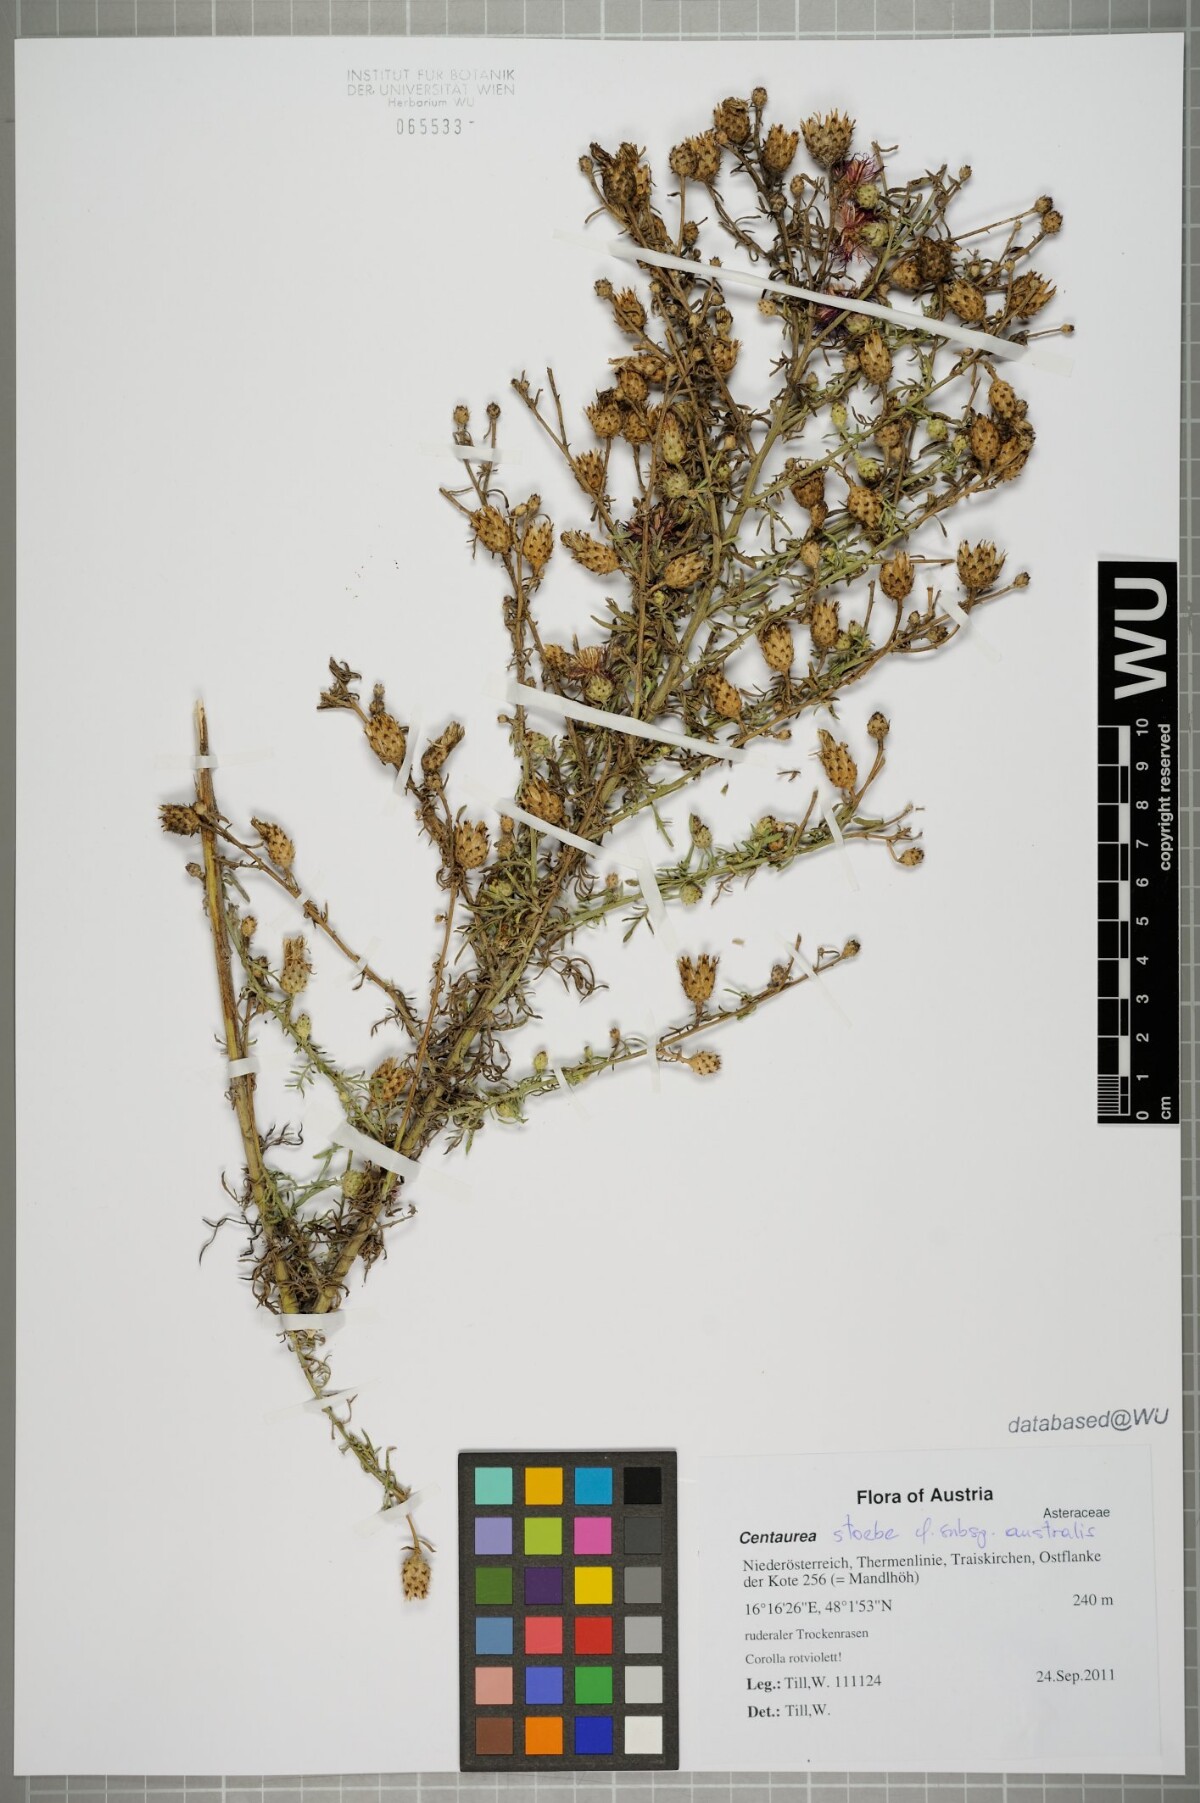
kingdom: Plantae
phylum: Tracheophyta
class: Magnoliopsida
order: Asterales
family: Asteraceae
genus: Centaurea
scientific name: Centaurea australis
